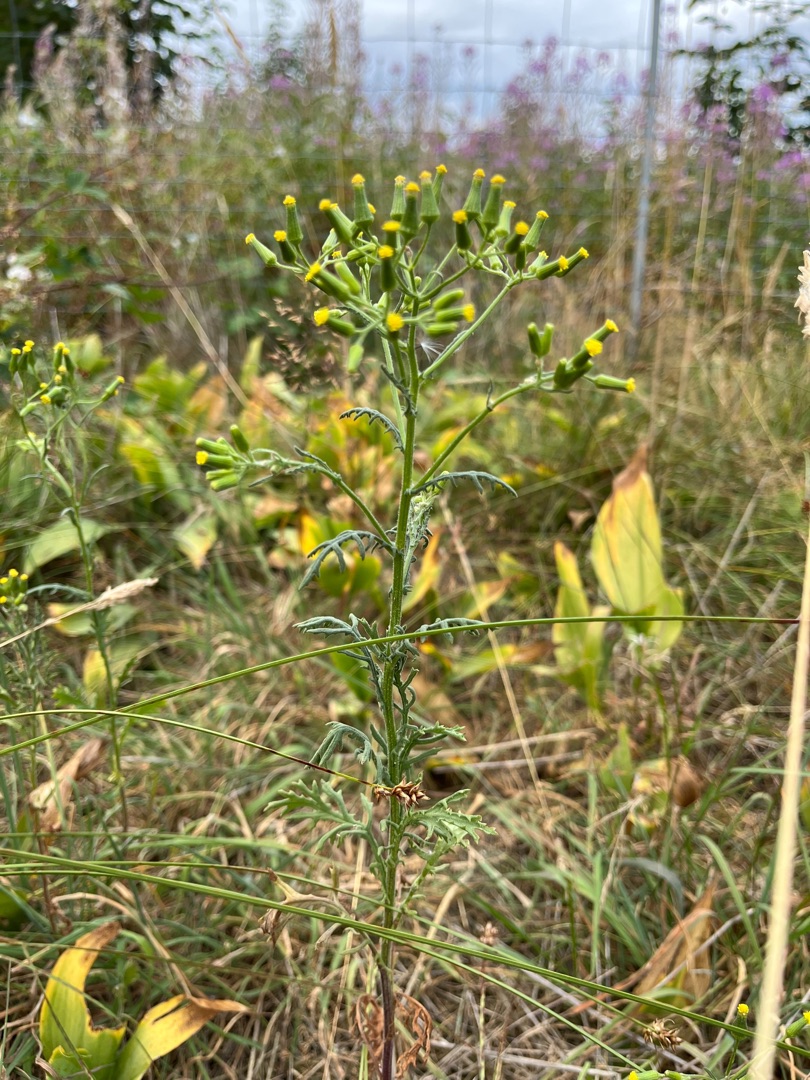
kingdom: Plantae
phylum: Tracheophyta
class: Magnoliopsida
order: Asterales
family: Asteraceae
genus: Senecio
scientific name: Senecio sylvaticus
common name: Skov-brandbæger
